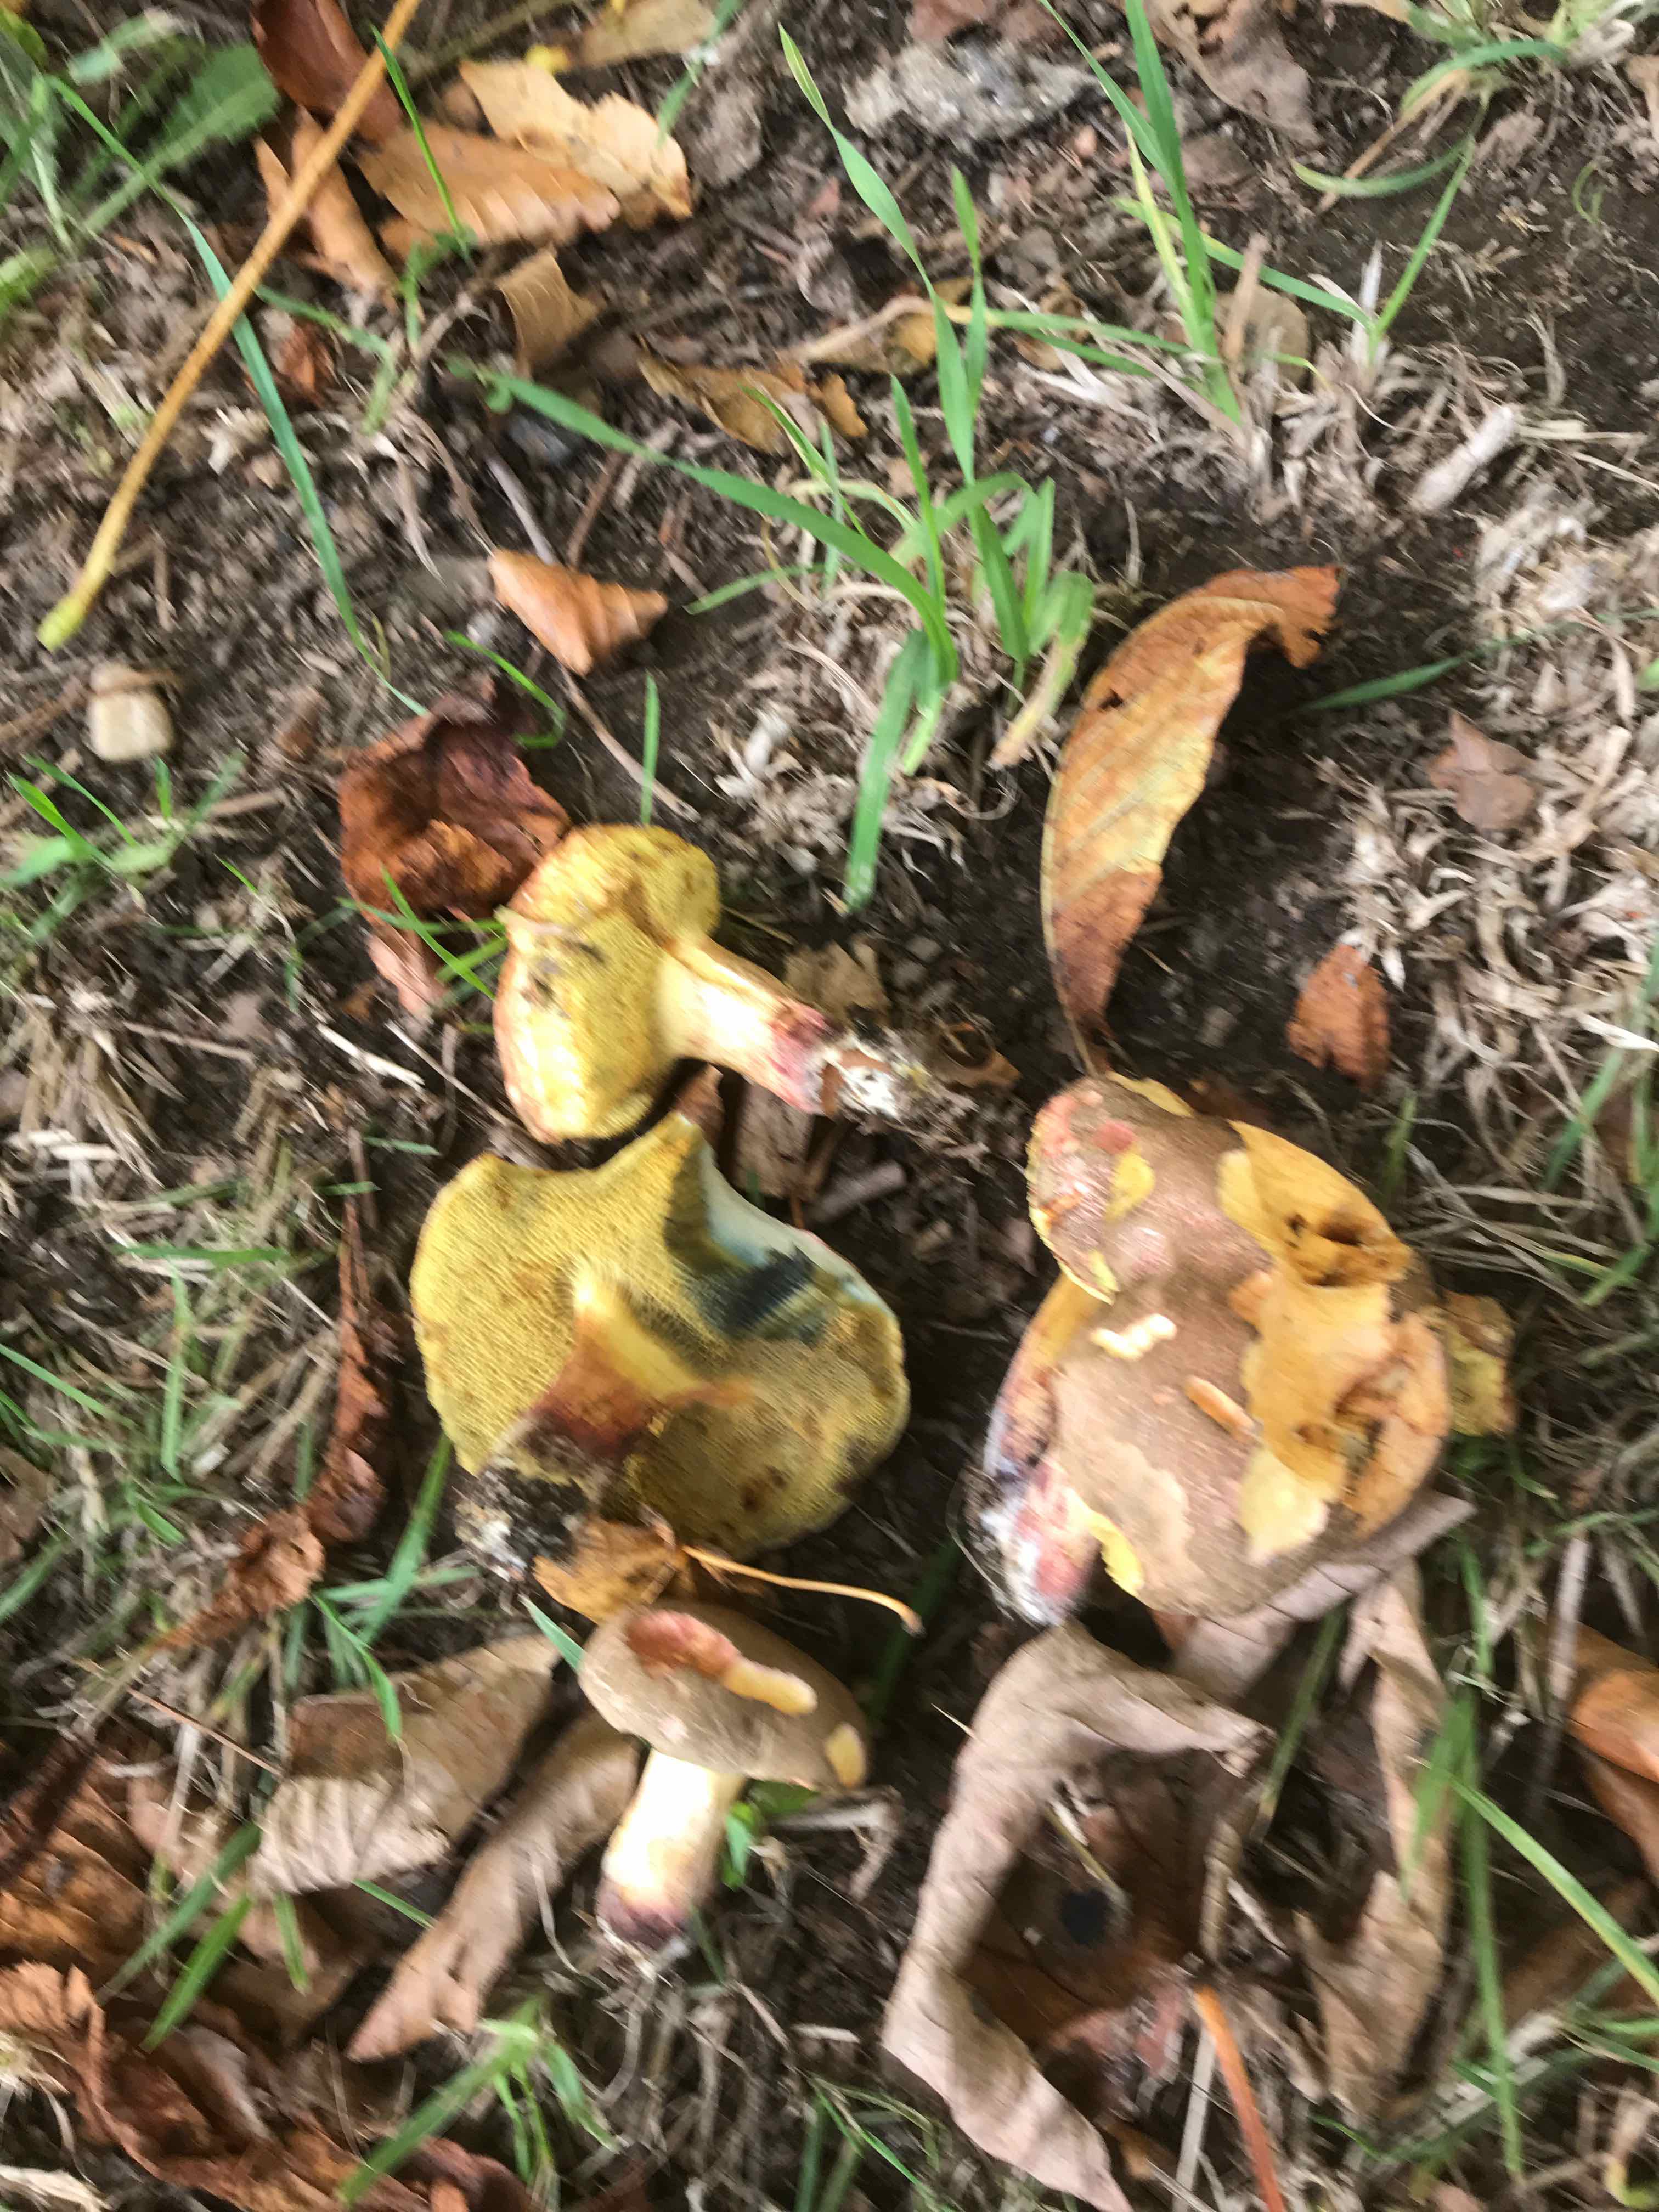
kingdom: Fungi
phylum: Basidiomycota
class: Agaricomycetes
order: Boletales
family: Boletaceae
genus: Xerocomellus
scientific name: Xerocomellus
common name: dværgrørhat
